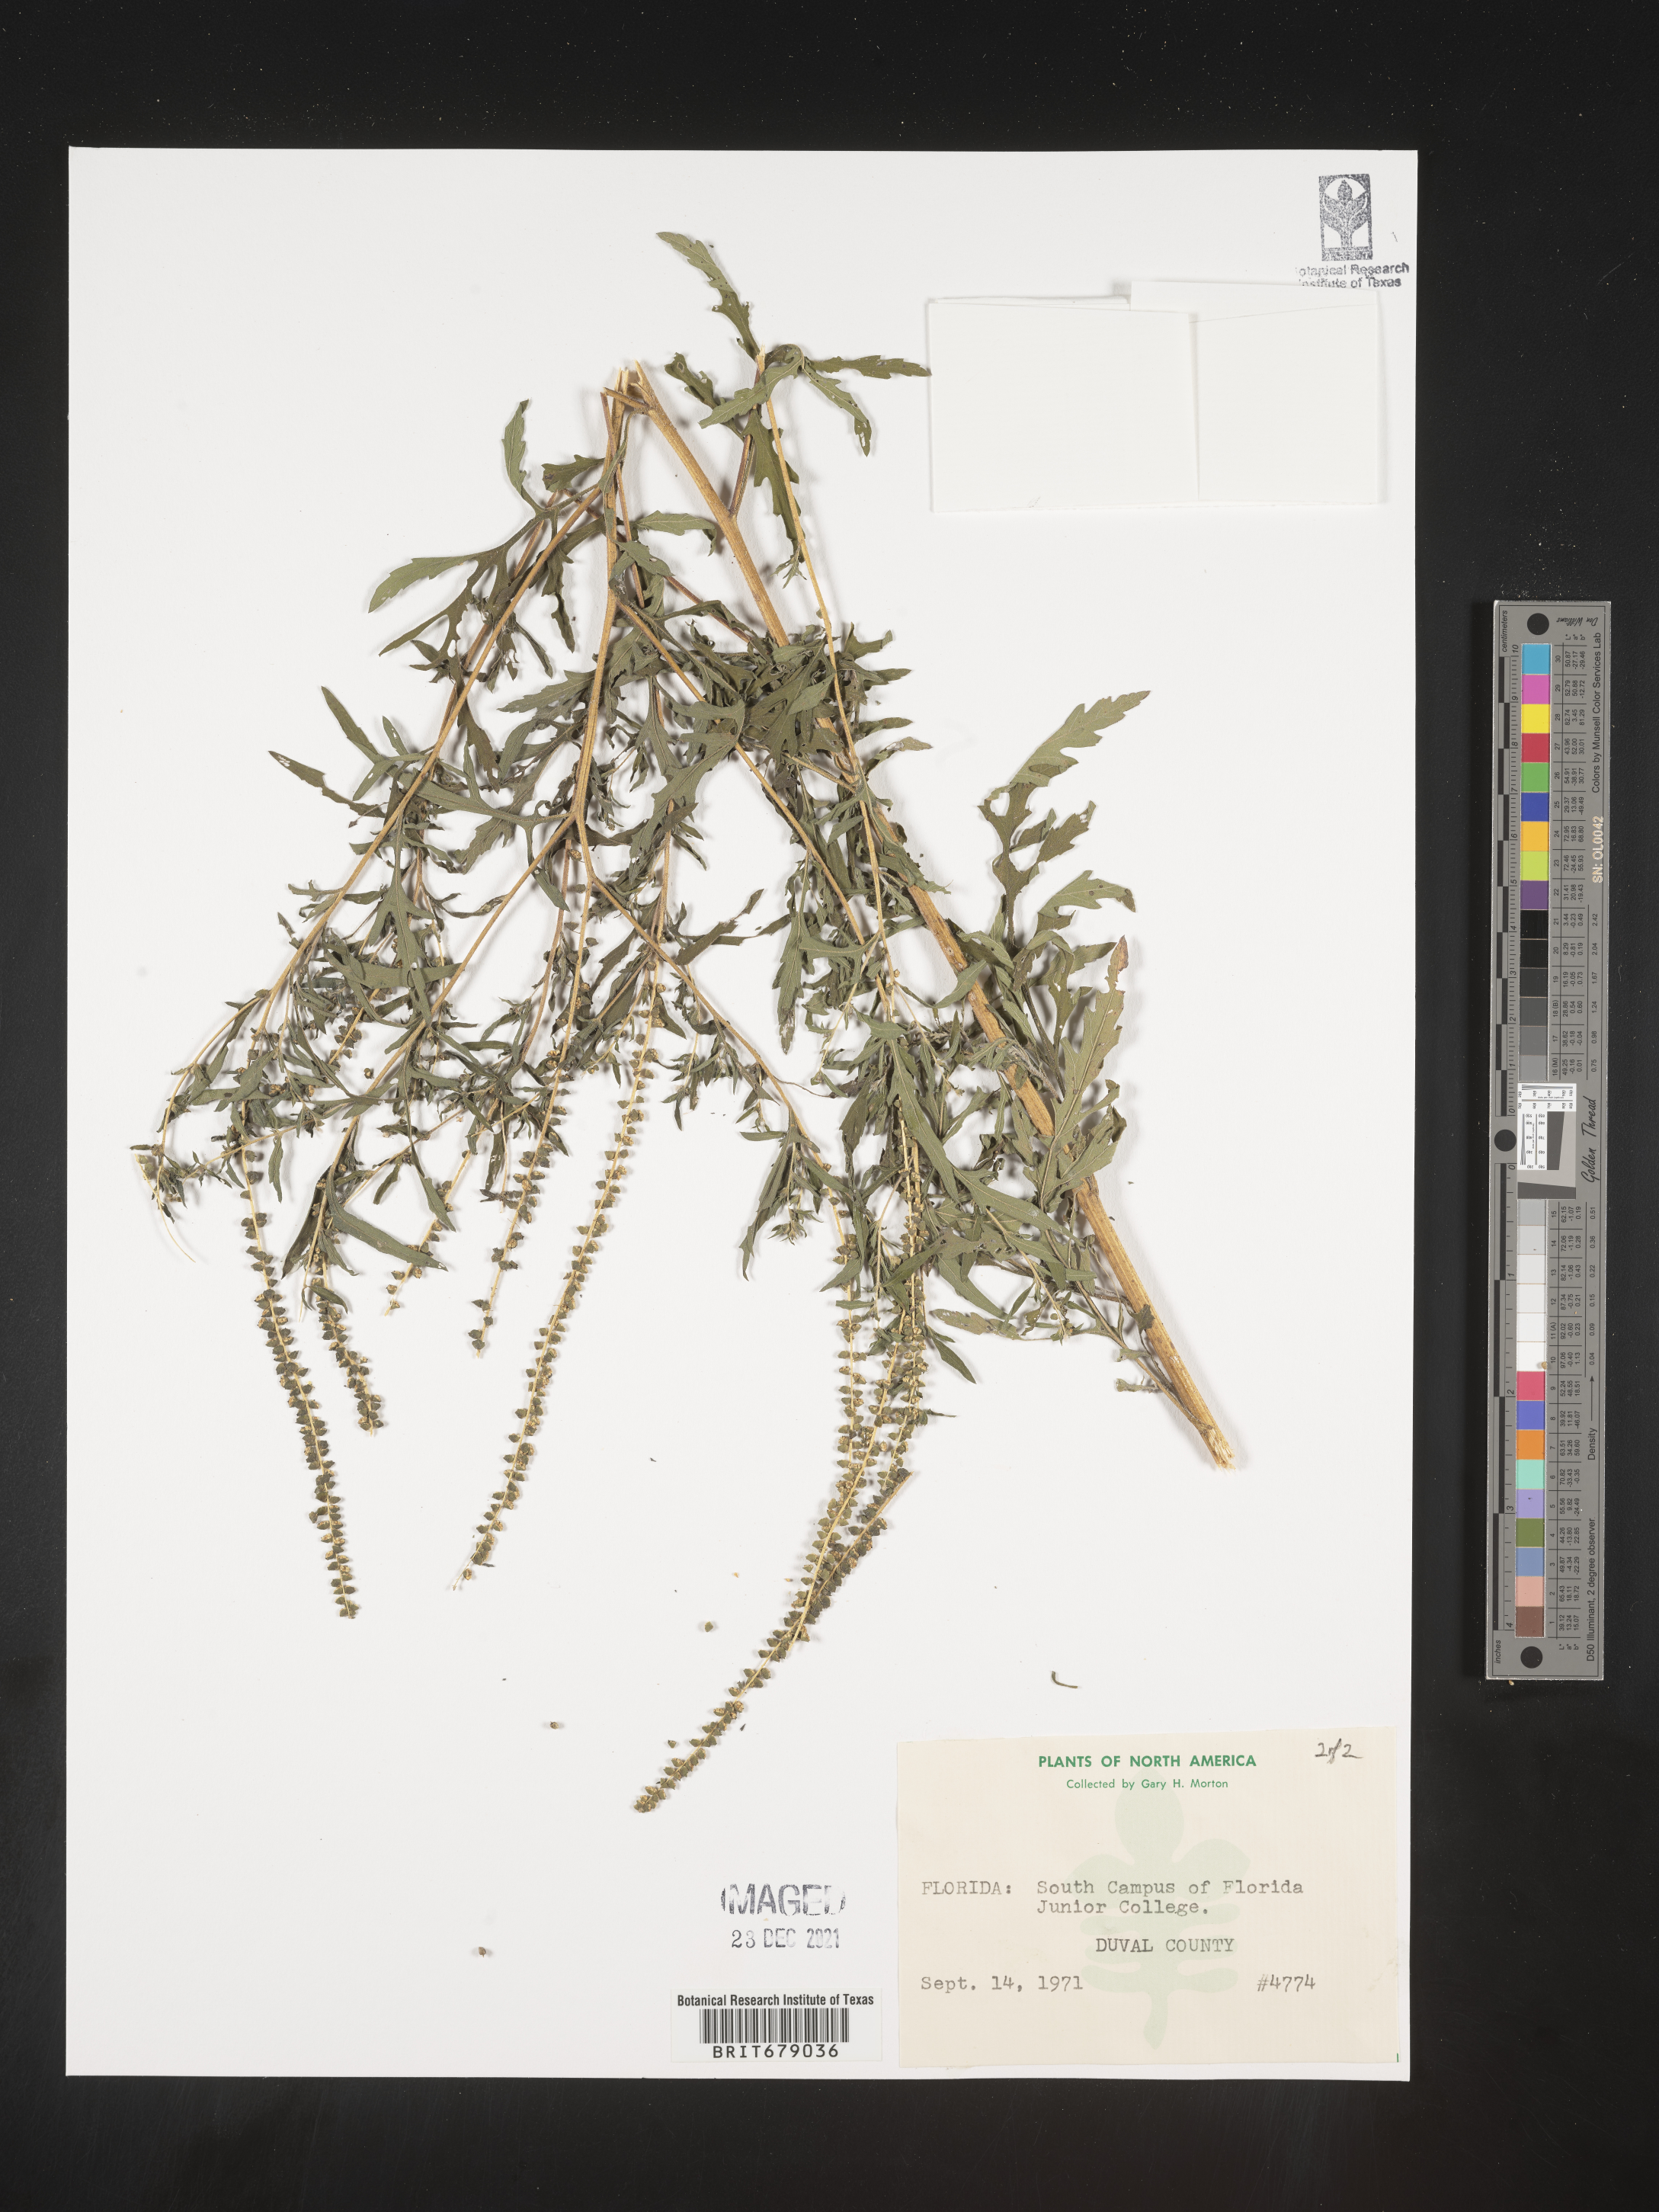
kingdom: Plantae
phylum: Tracheophyta
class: Magnoliopsida
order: Asterales
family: Asteraceae
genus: Ambrosia
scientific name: Ambrosia
